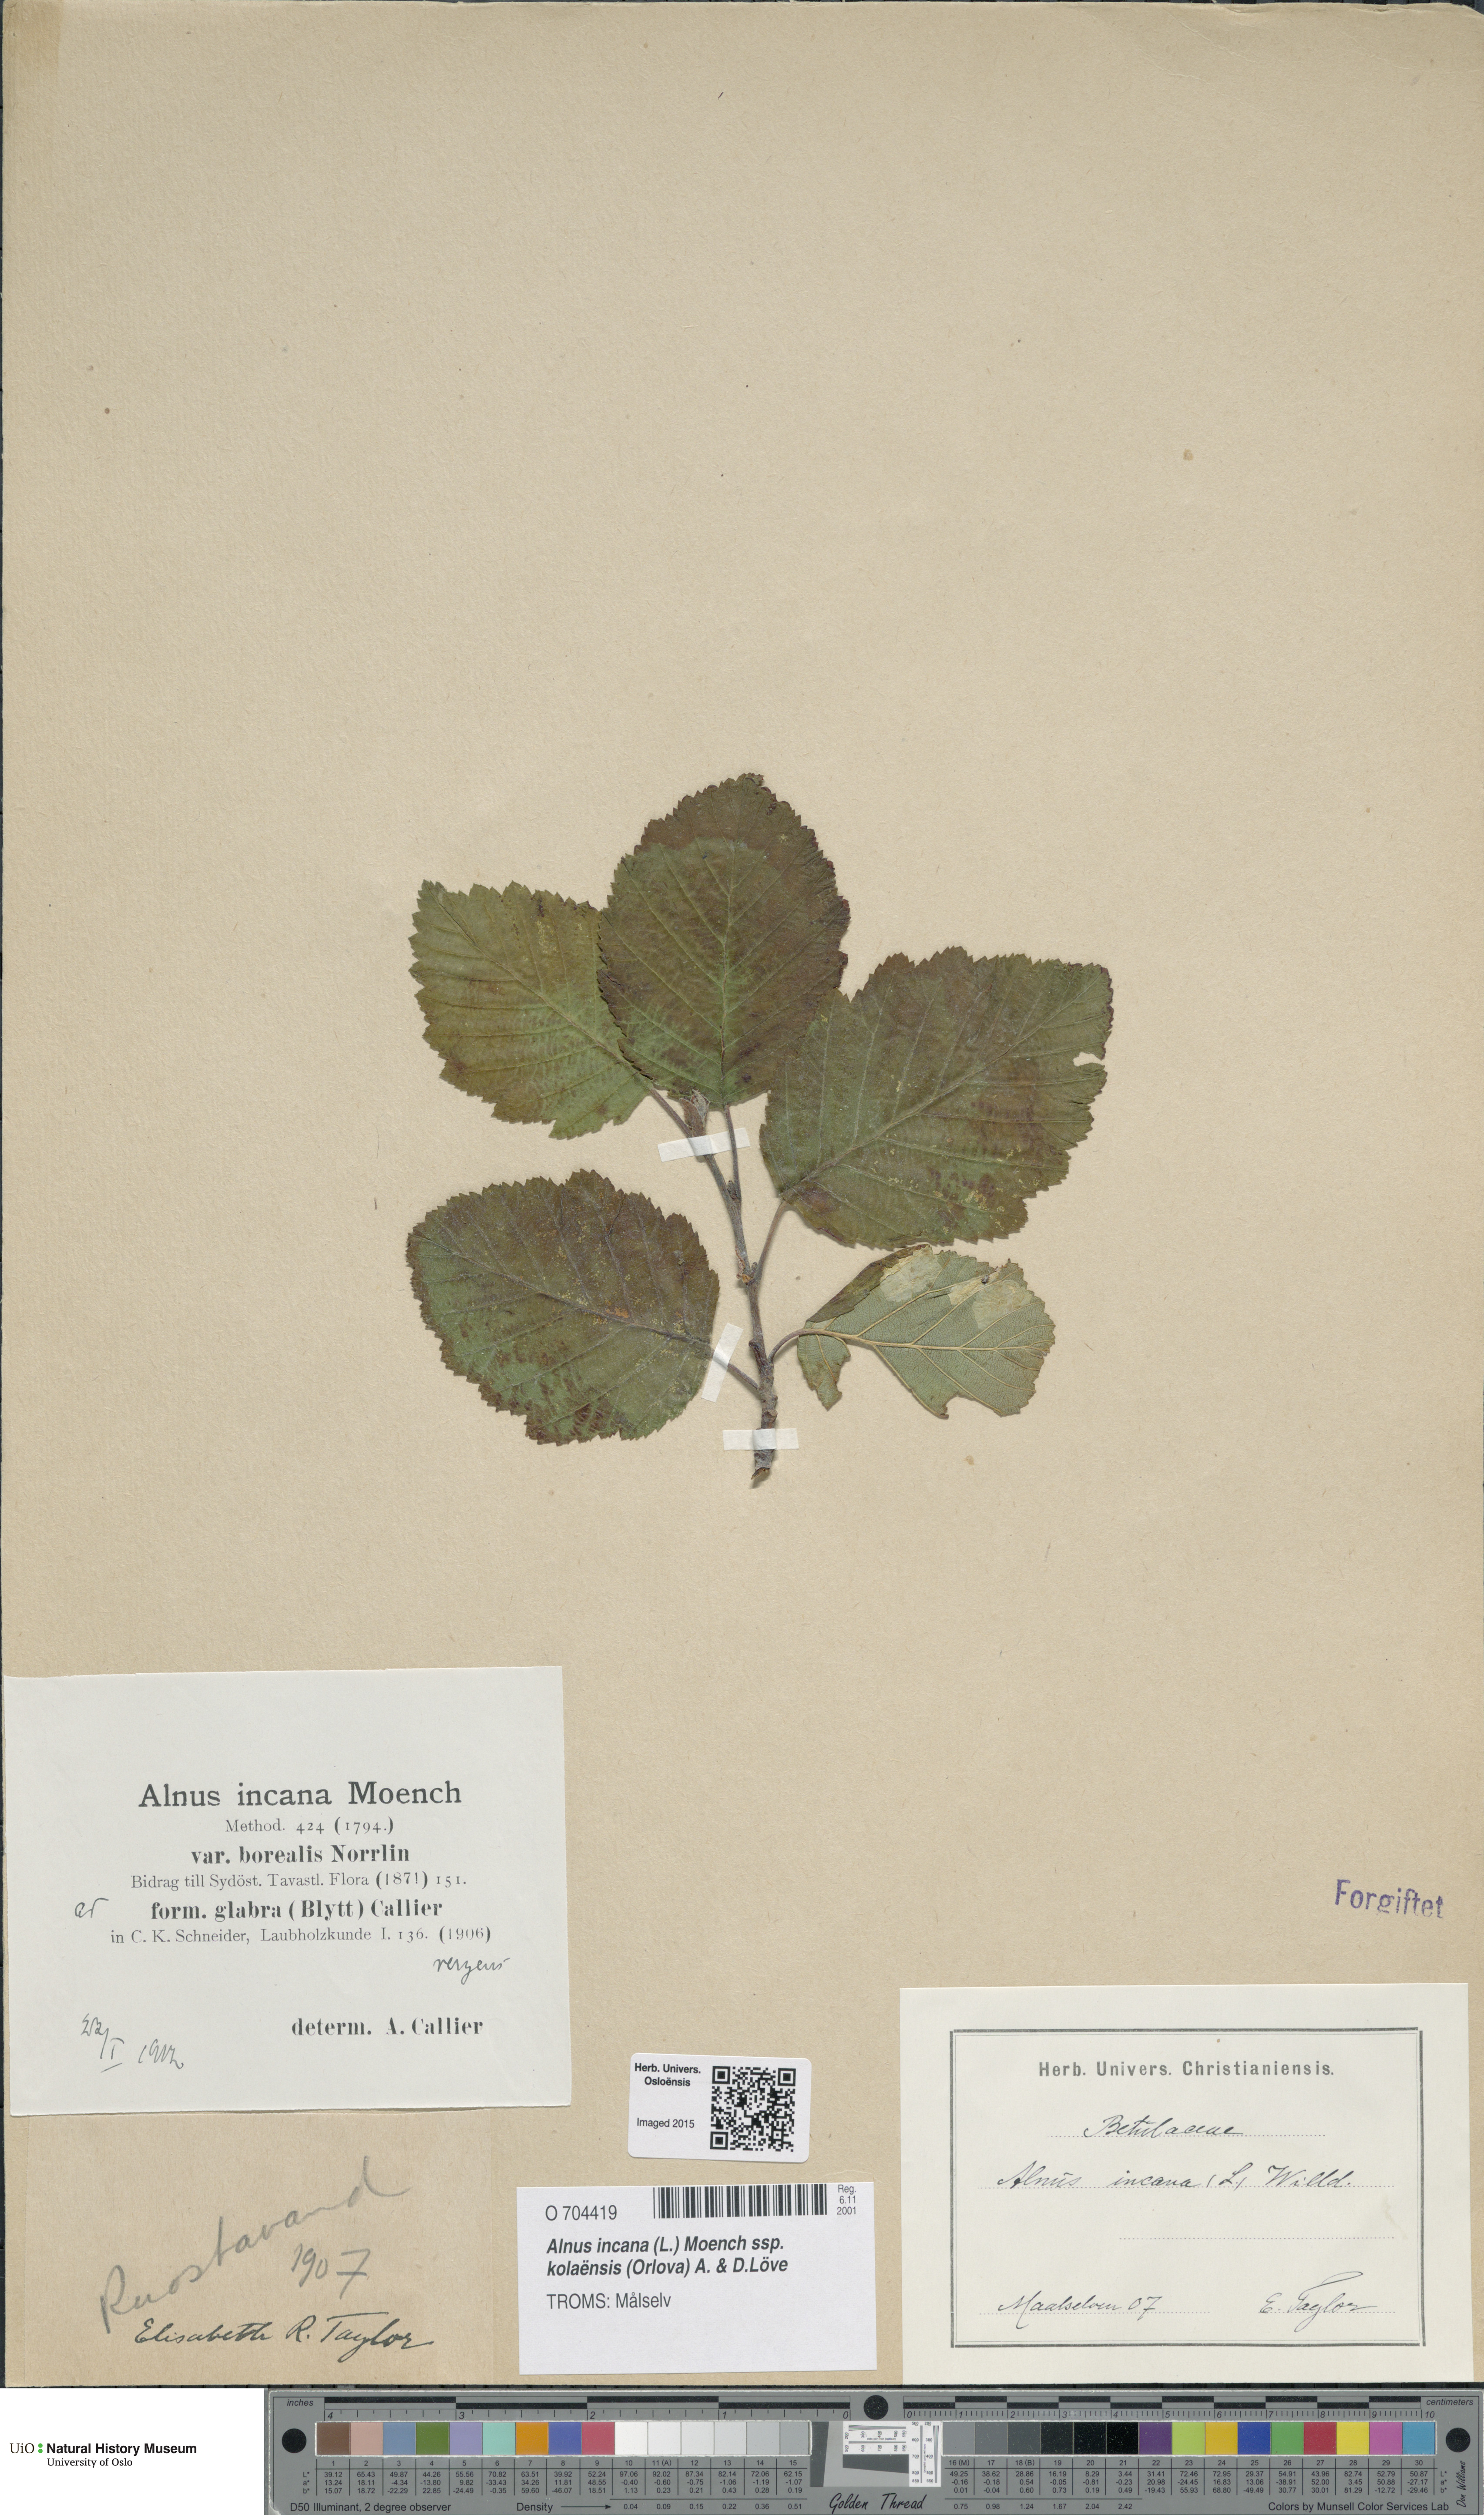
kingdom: Plantae
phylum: Tracheophyta
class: Magnoliopsida
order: Fagales
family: Betulaceae
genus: Alnus
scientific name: Alnus incana
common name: Grey alder
